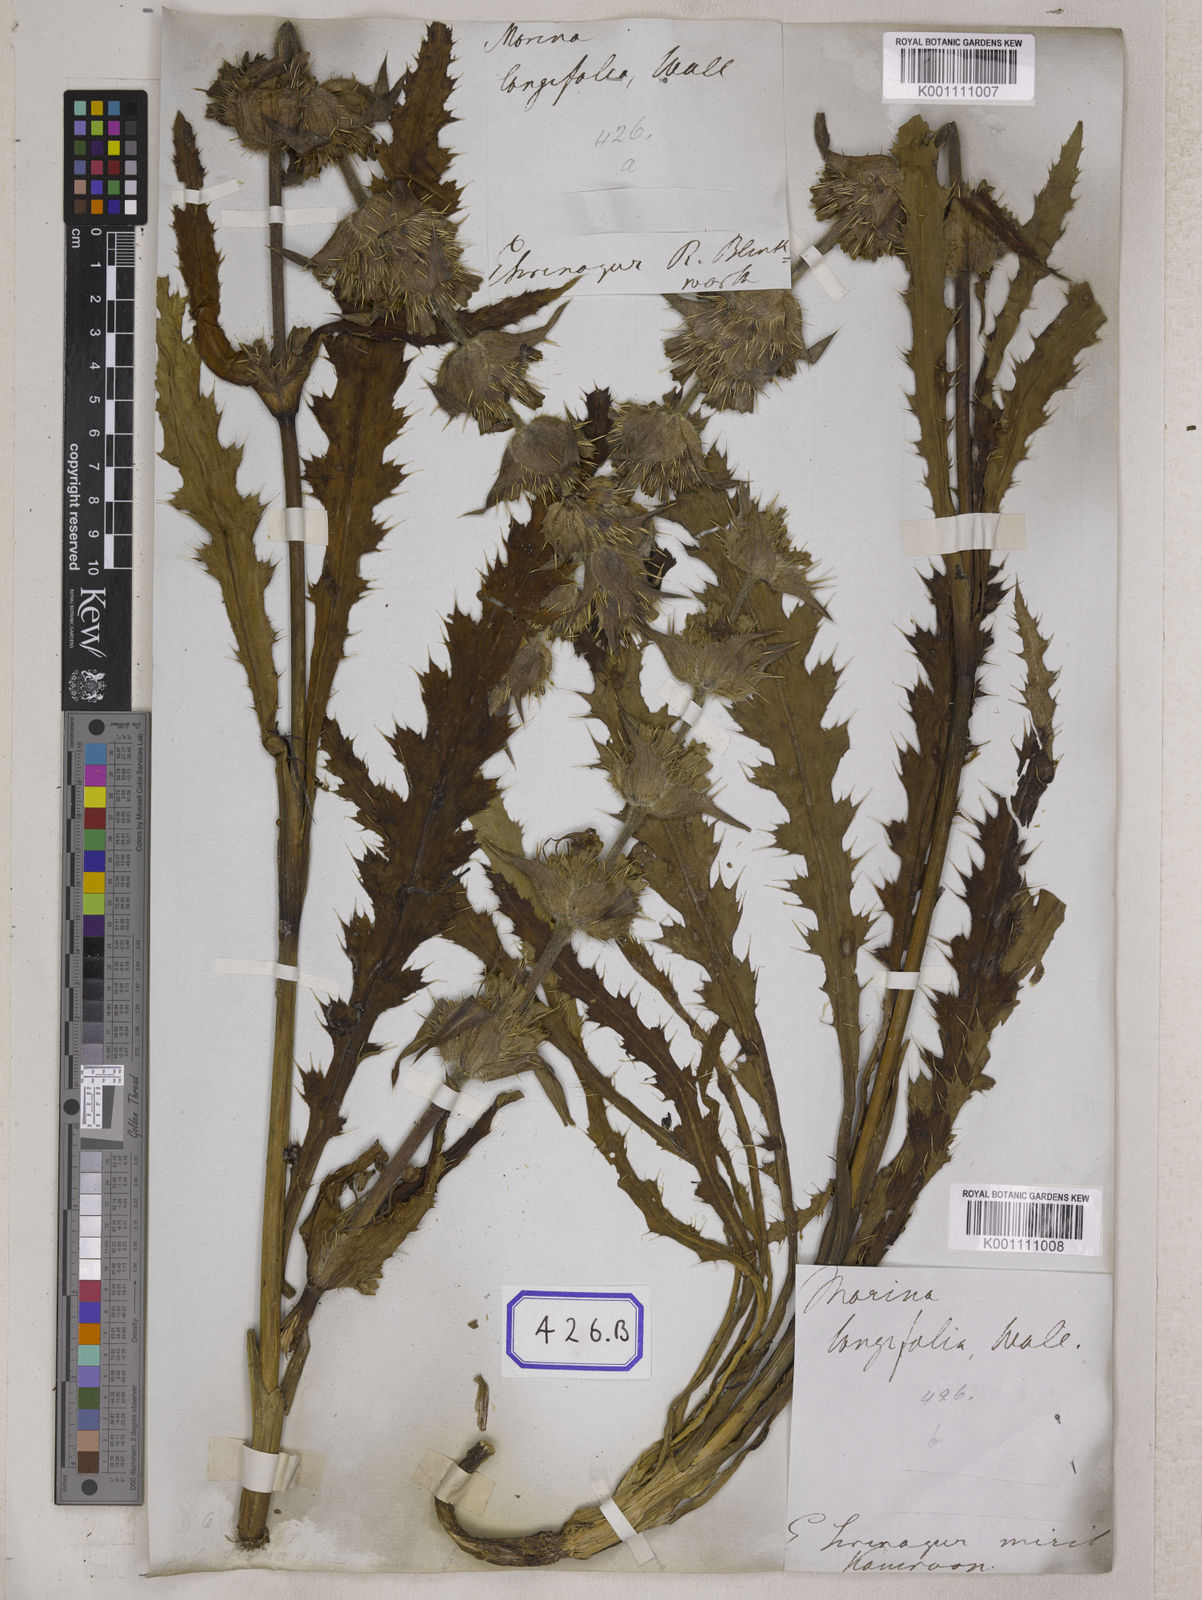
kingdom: Plantae
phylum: Tracheophyta
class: Magnoliopsida
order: Dipsacales
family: Caprifoliaceae
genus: Morina
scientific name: Morina
